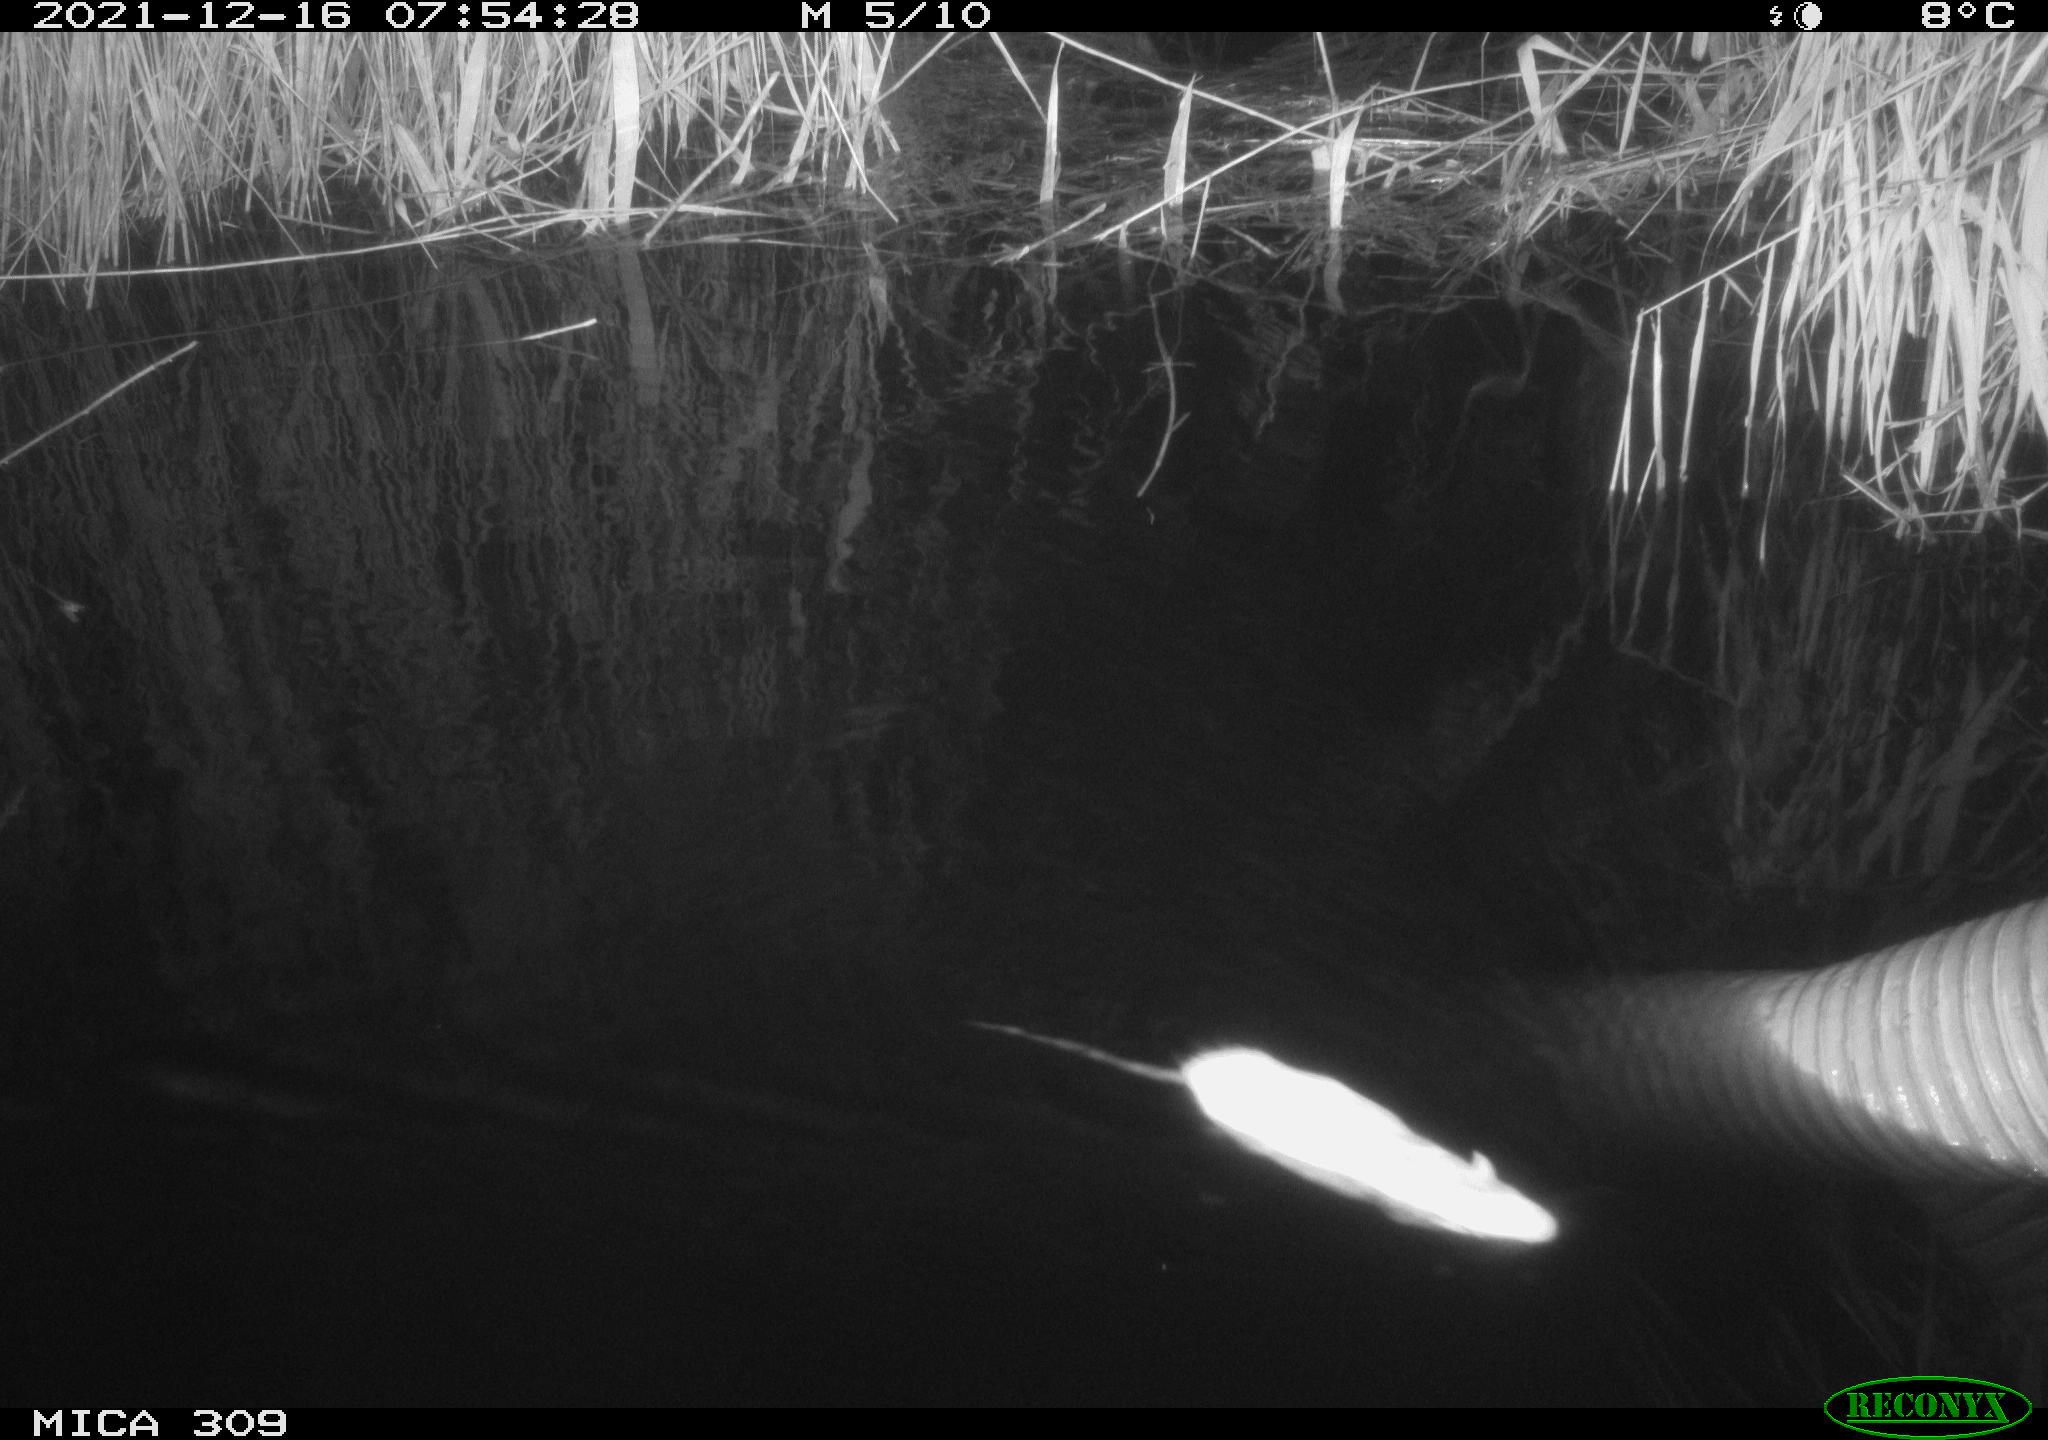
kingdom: Animalia
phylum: Chordata
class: Mammalia
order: Rodentia
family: Muridae
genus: Rattus
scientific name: Rattus norvegicus
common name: Brown rat
